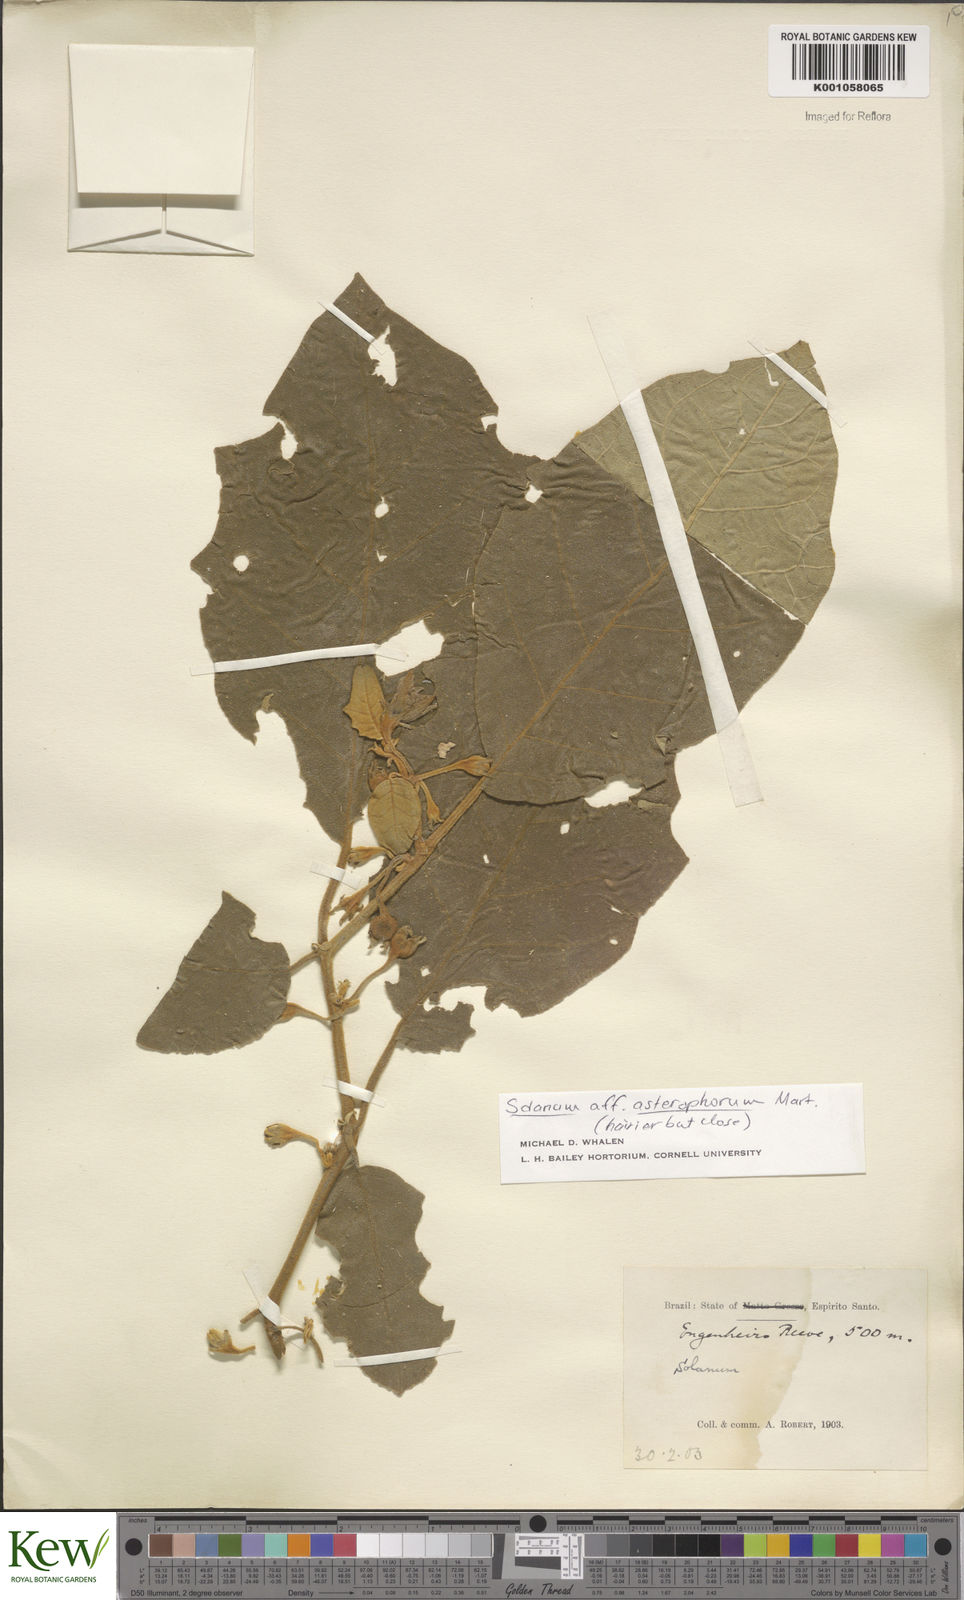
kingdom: Plantae
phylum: Tracheophyta
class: Magnoliopsida
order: Solanales
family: Solanaceae
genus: Solanum
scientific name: Solanum asterophorum
